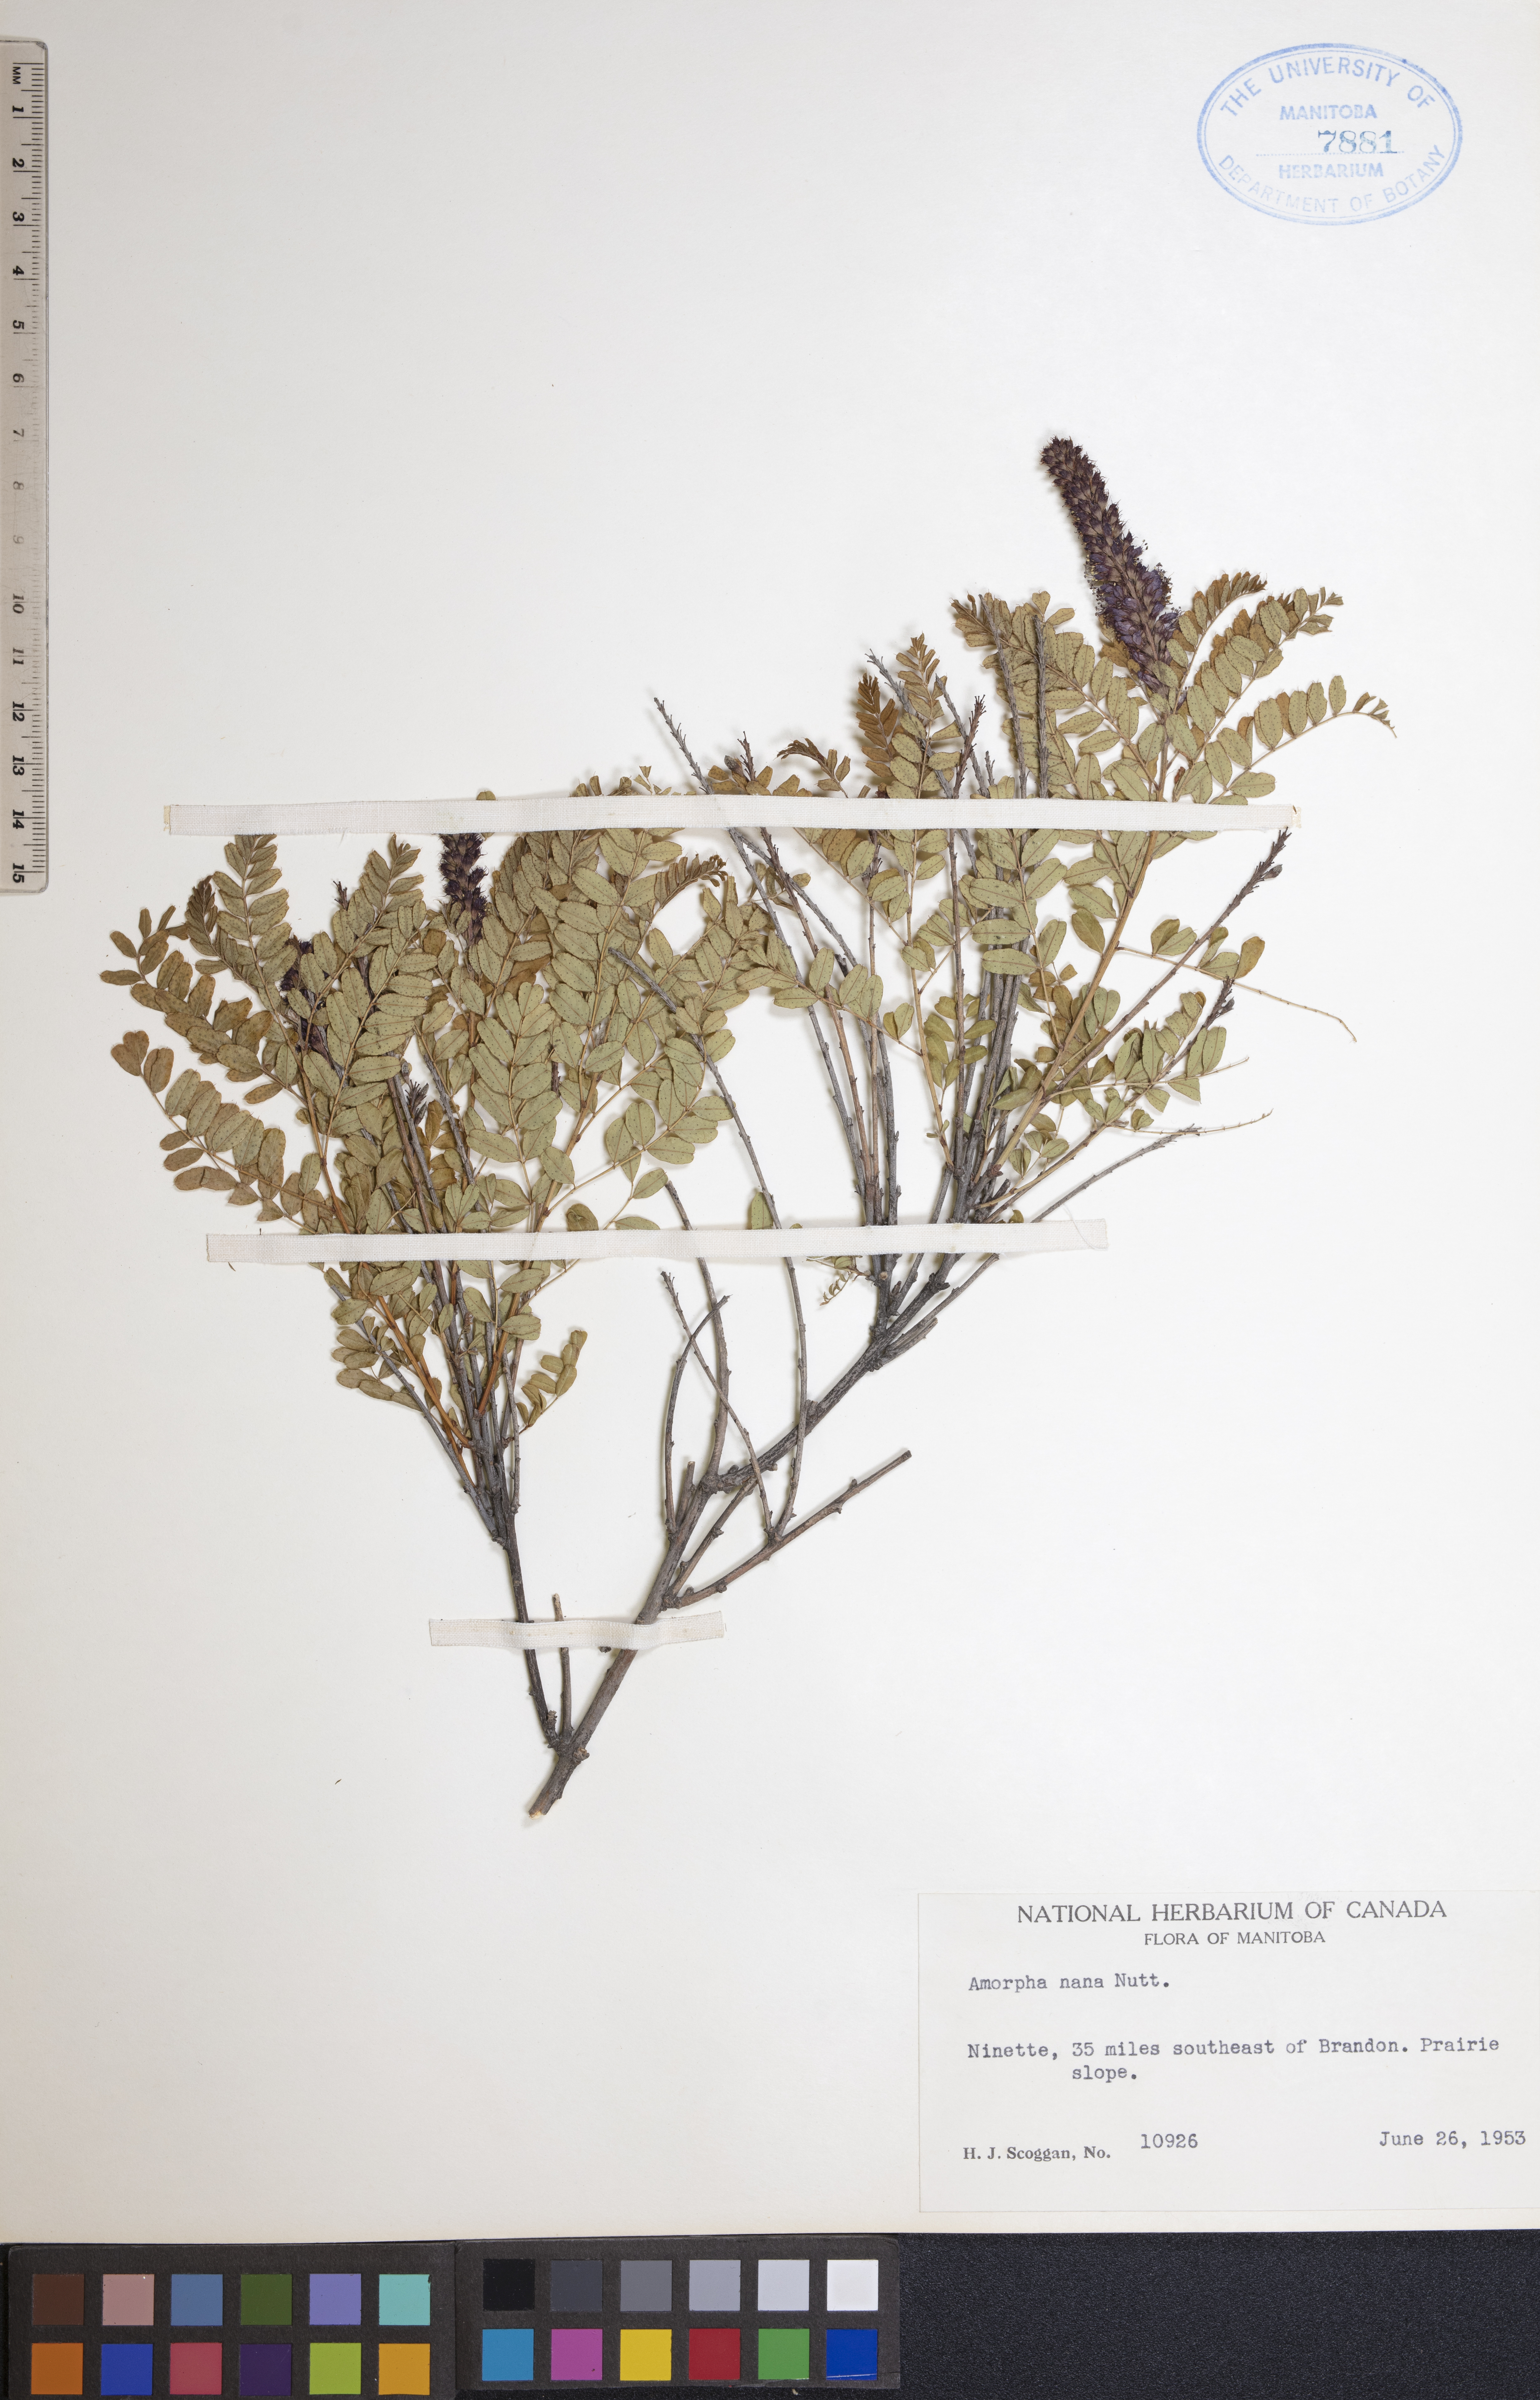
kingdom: Plantae
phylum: Tracheophyta
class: Magnoliopsida
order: Fabales
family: Fabaceae
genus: Amorpha
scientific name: Amorpha nana
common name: Fragrant false indigo
